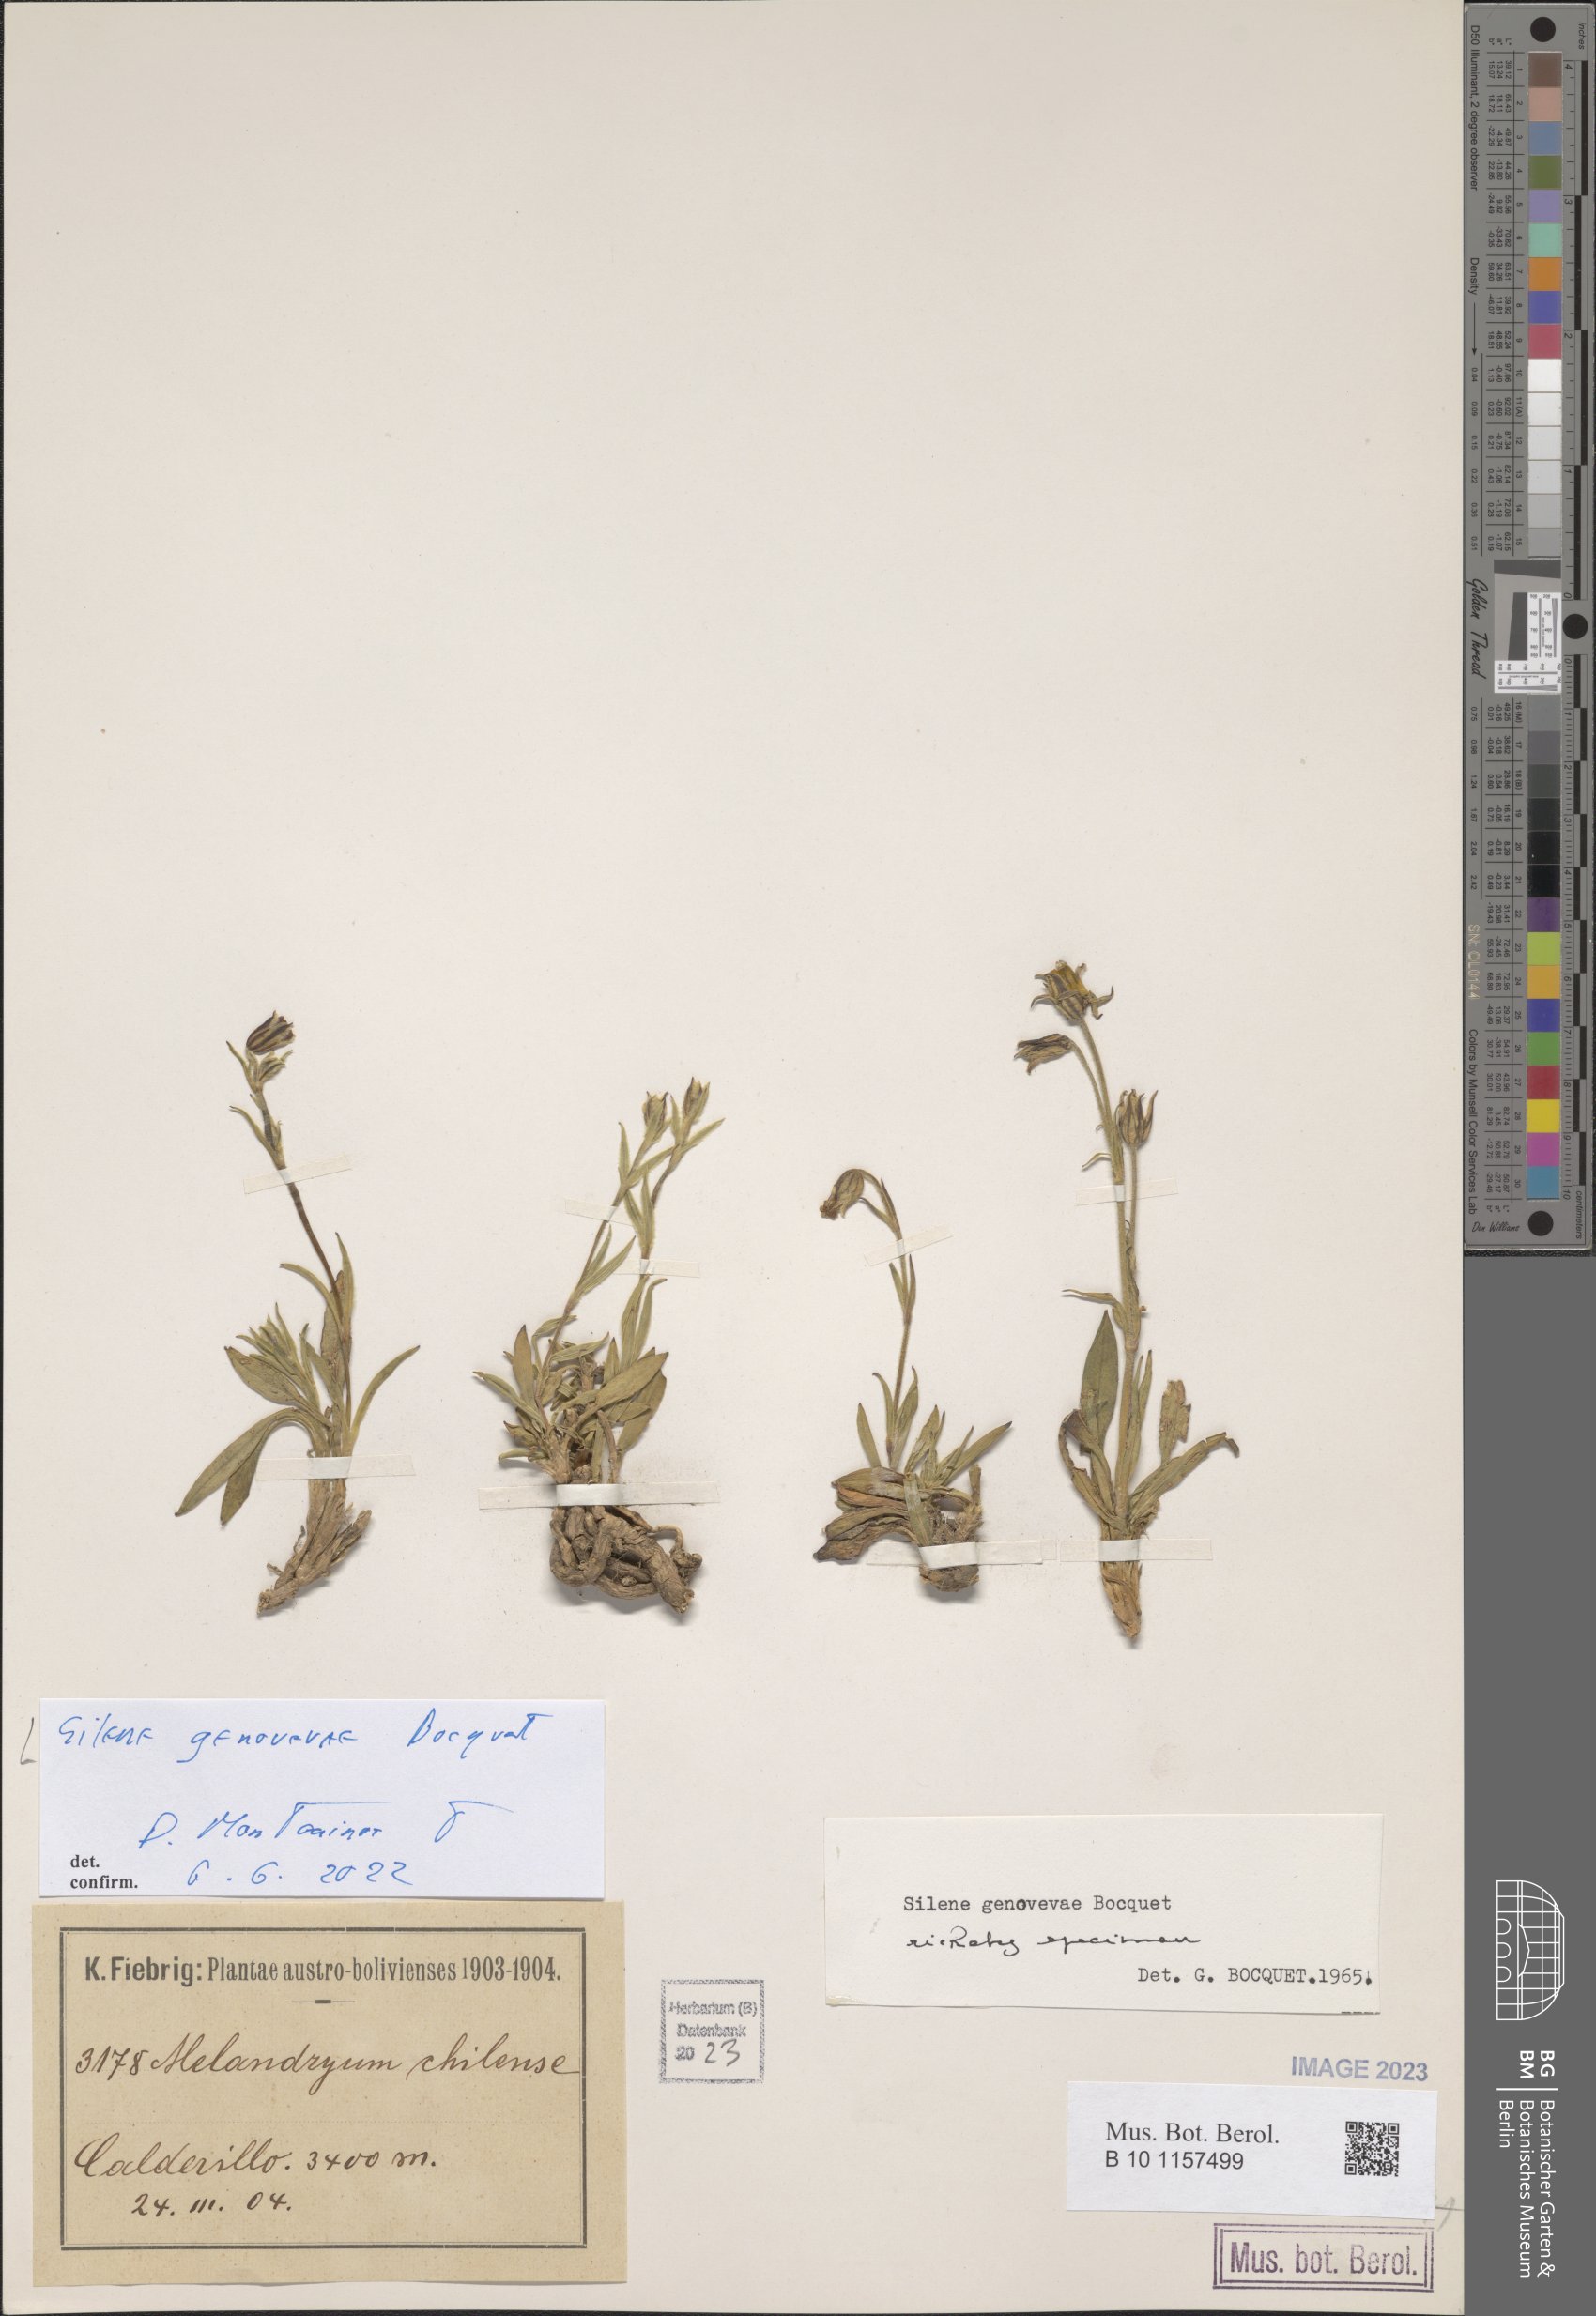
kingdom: Plantae
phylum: Tracheophyta
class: Magnoliopsida
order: Caryophyllales
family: Caryophyllaceae
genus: Silene
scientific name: Silene genovevae
